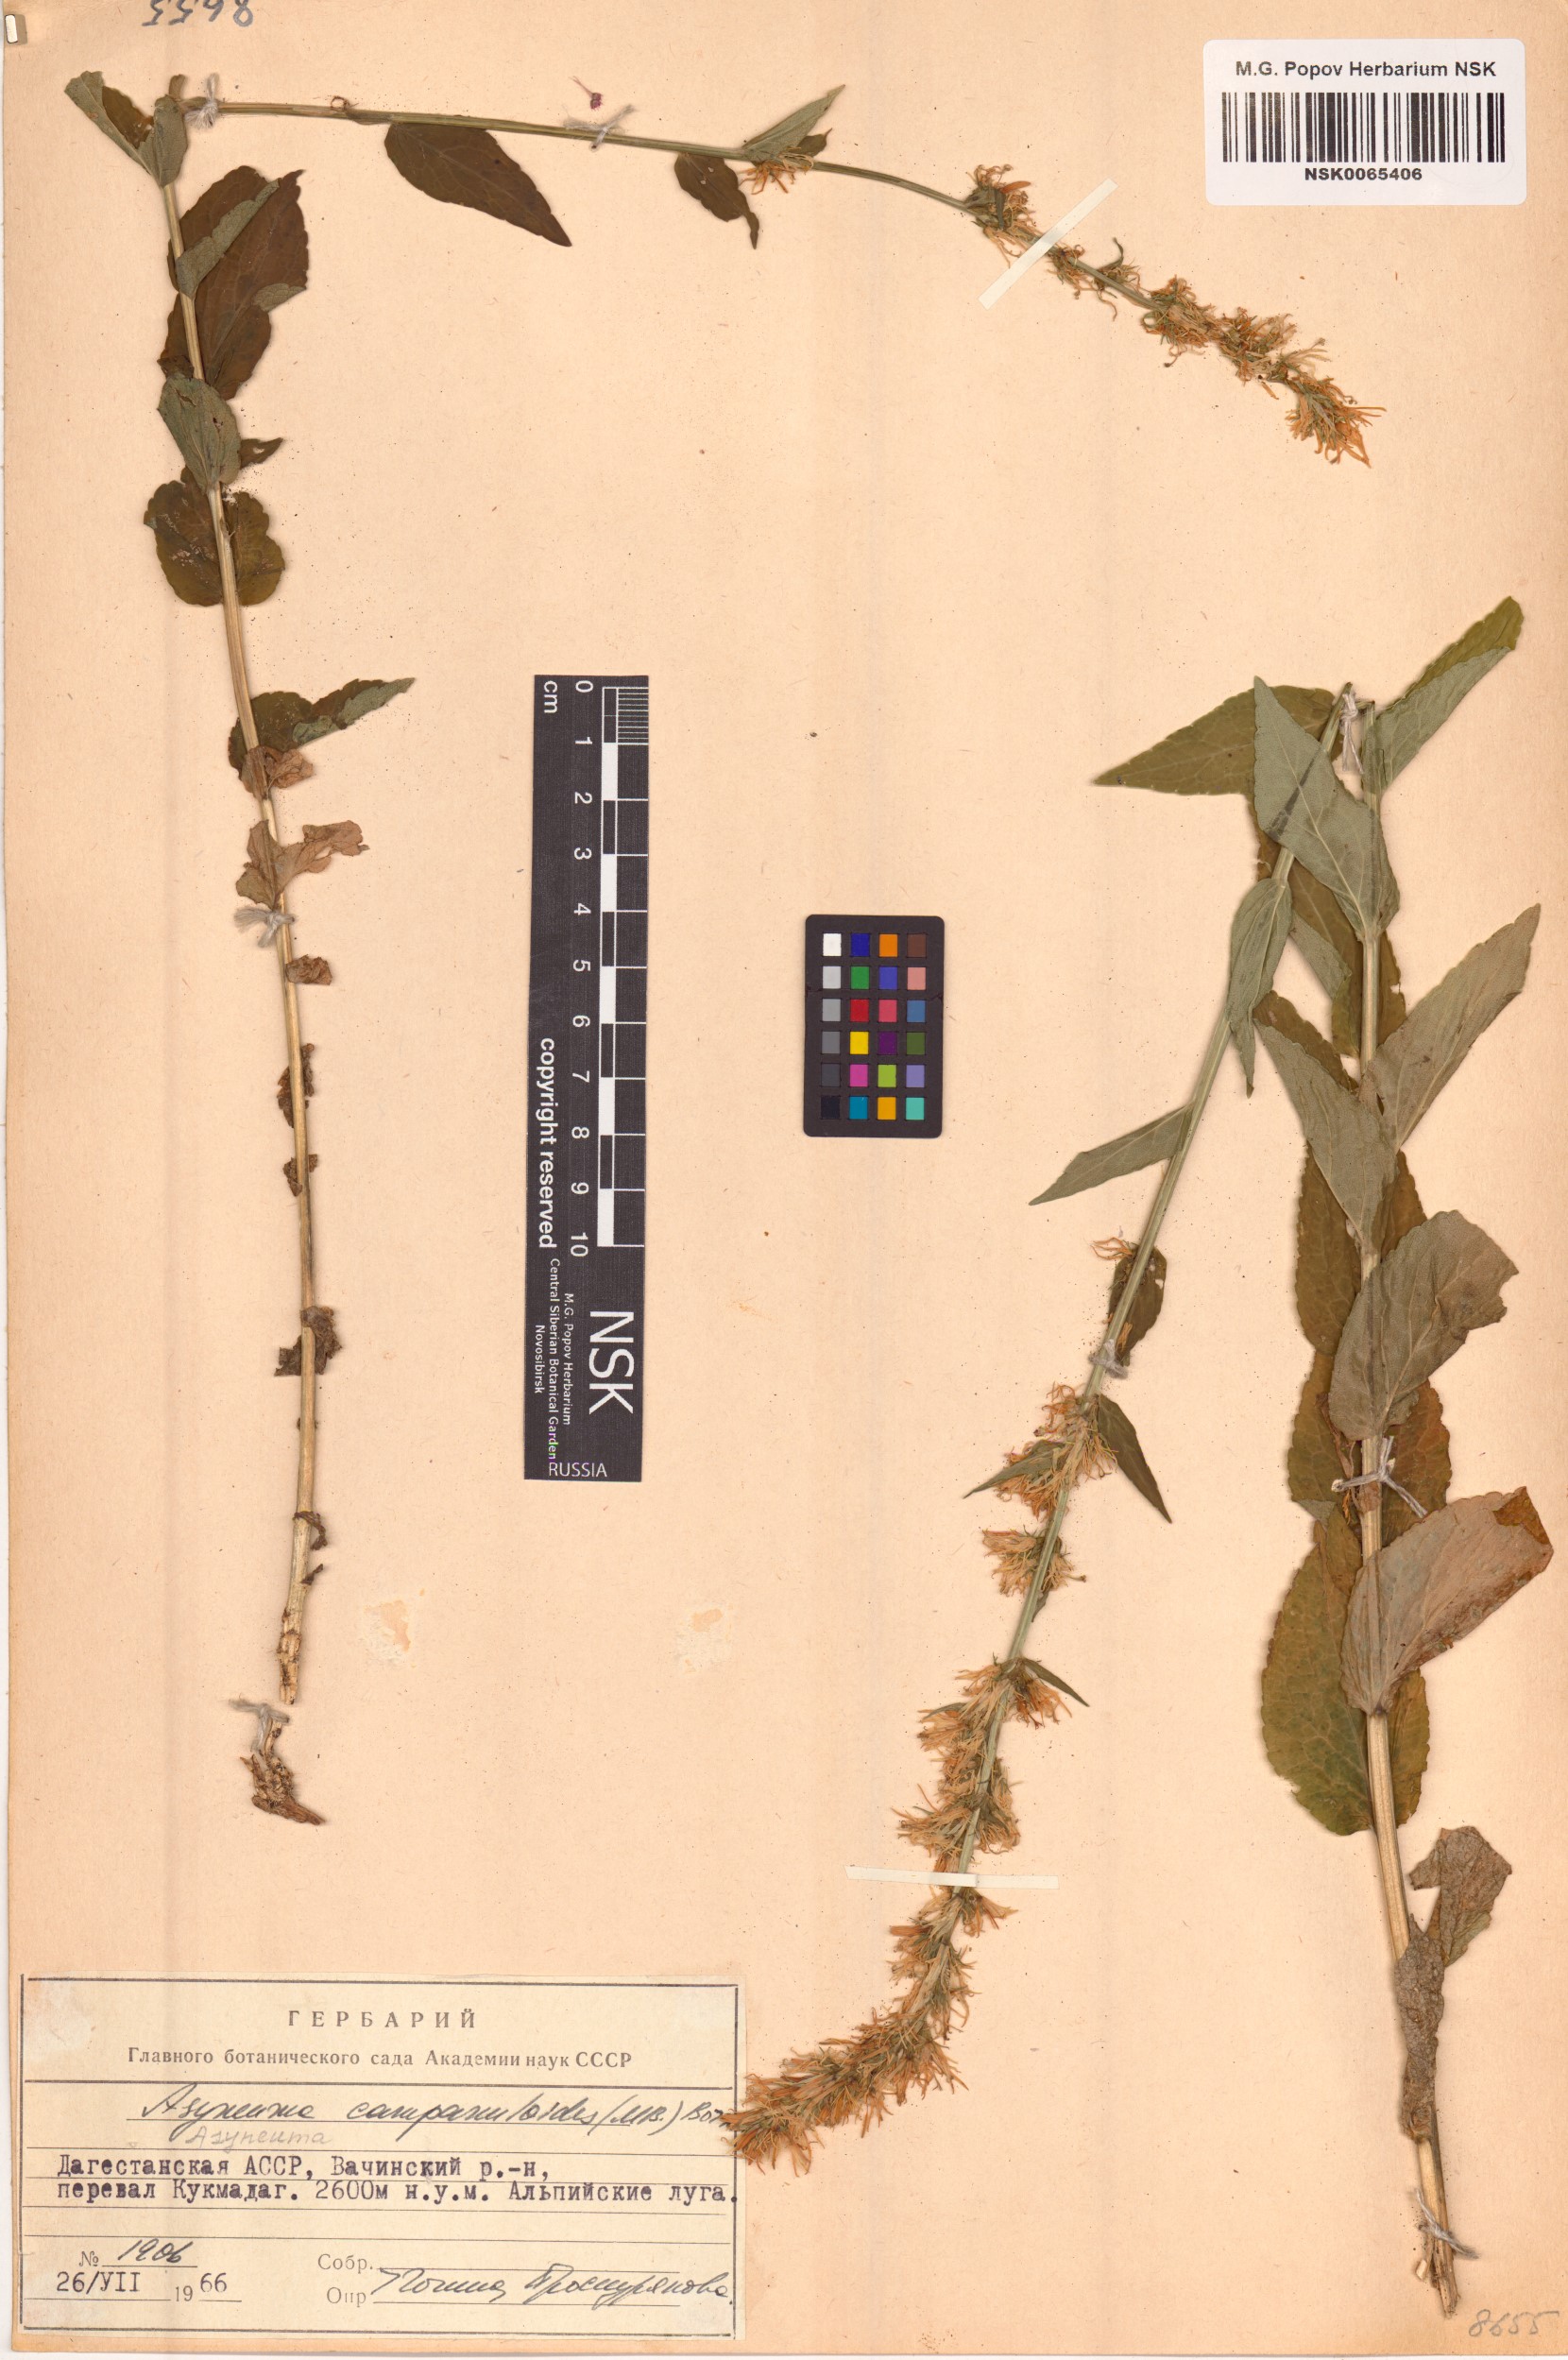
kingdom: Plantae
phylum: Tracheophyta
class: Magnoliopsida
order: Asterales
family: Campanulaceae
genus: Asyneuma
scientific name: Asyneuma campanuloides
